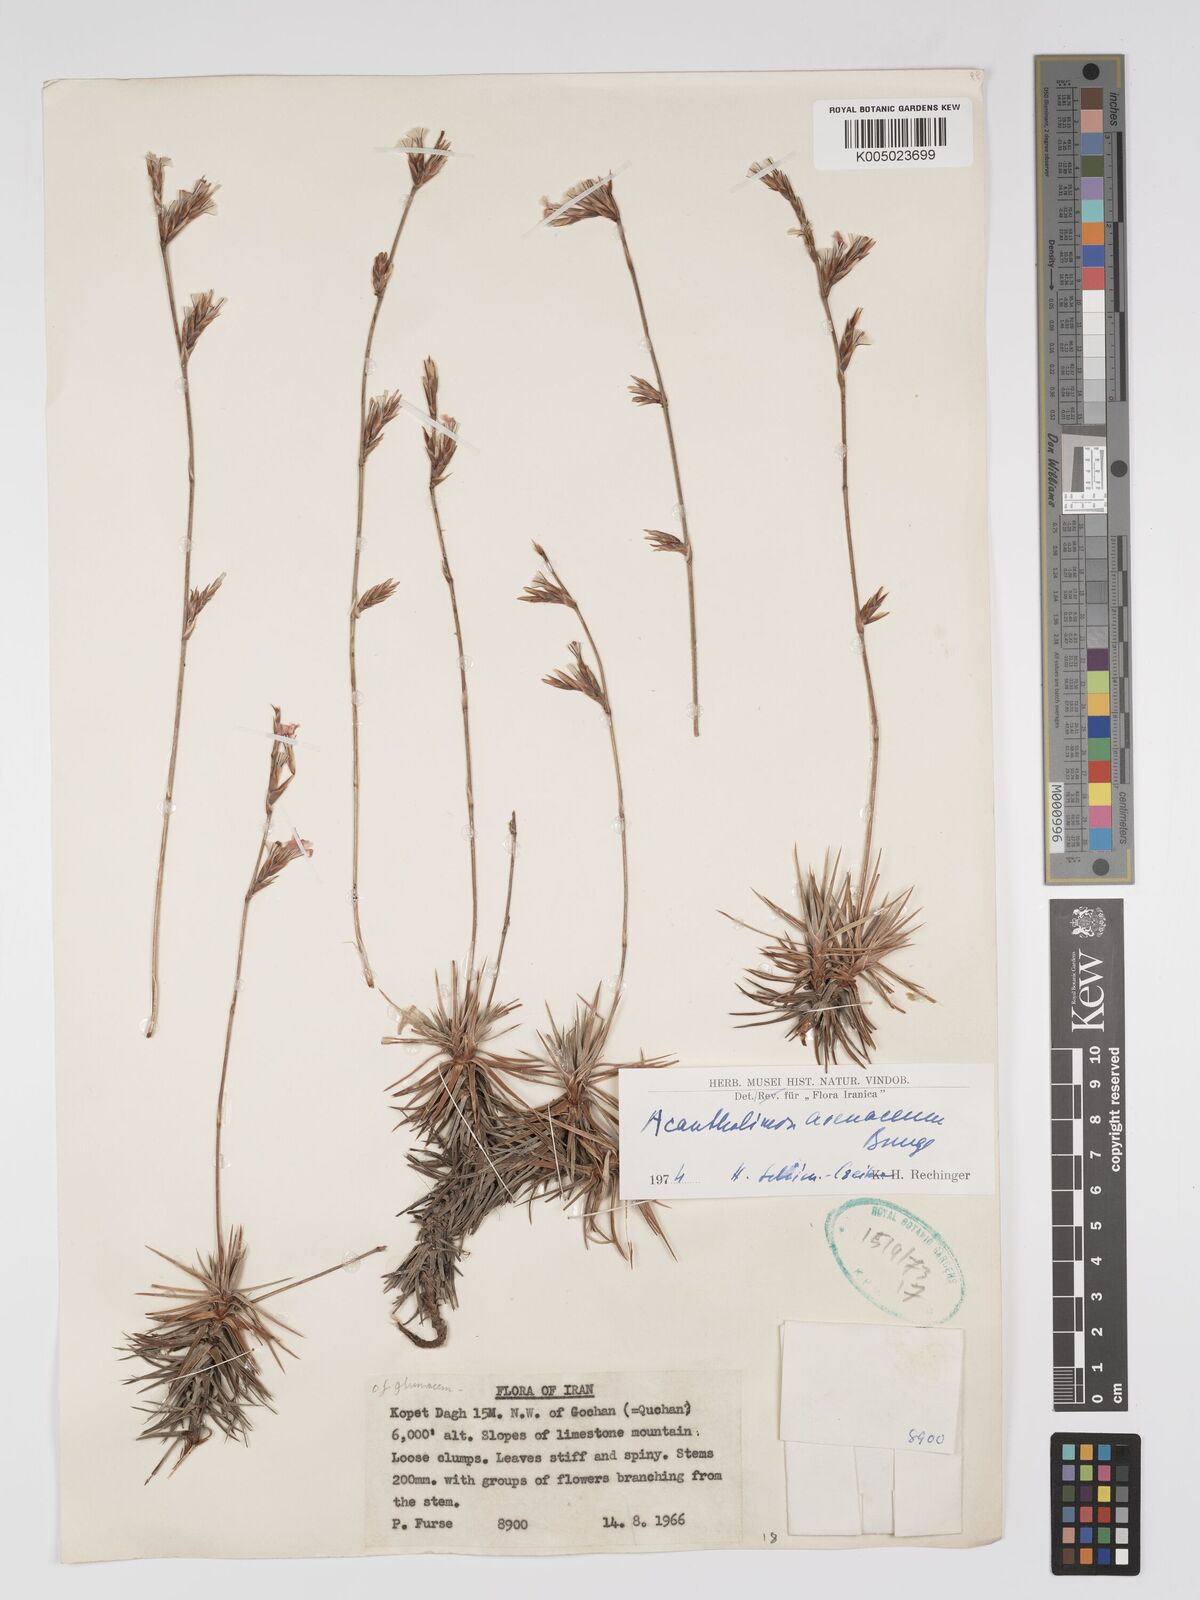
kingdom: Plantae
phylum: Tracheophyta
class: Magnoliopsida
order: Caryophyllales
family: Plumbaginaceae
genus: Acantholimon
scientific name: Acantholimon avenaceum
